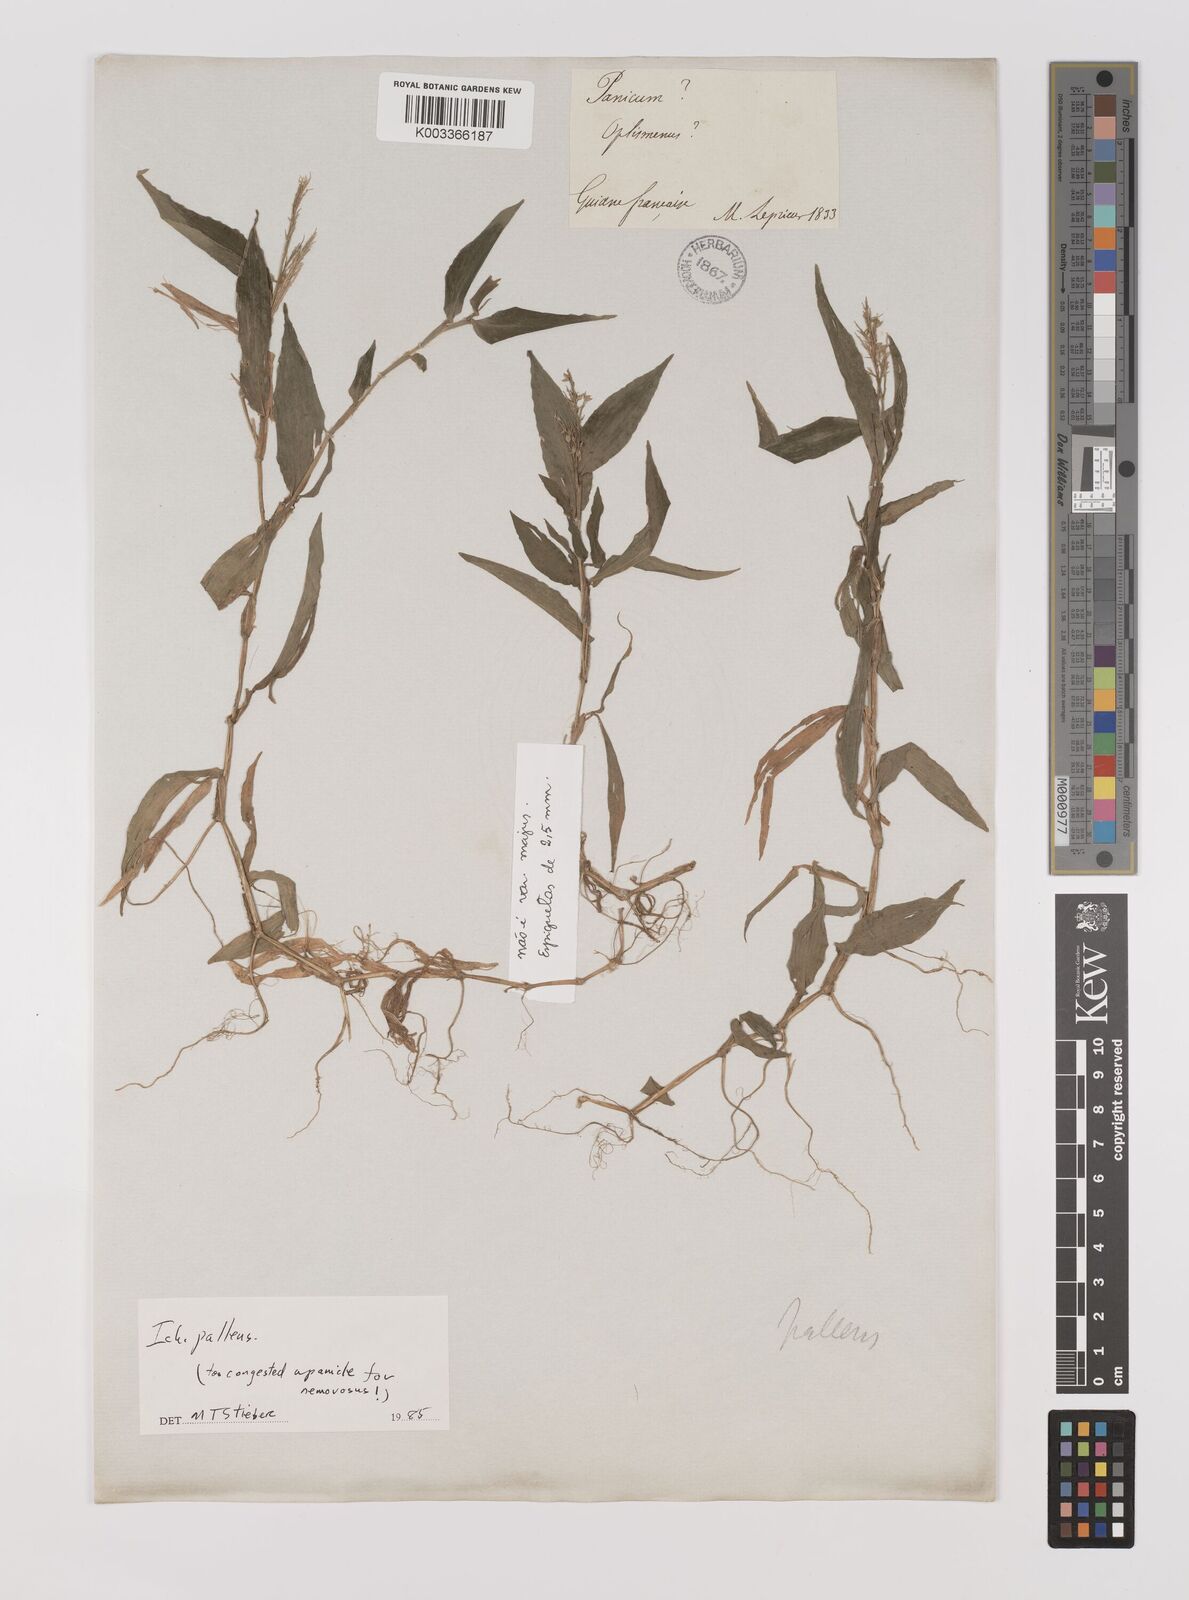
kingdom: Plantae
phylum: Tracheophyta
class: Liliopsida
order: Poales
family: Poaceae
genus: Ichnanthus
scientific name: Ichnanthus pallens
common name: Water grass
